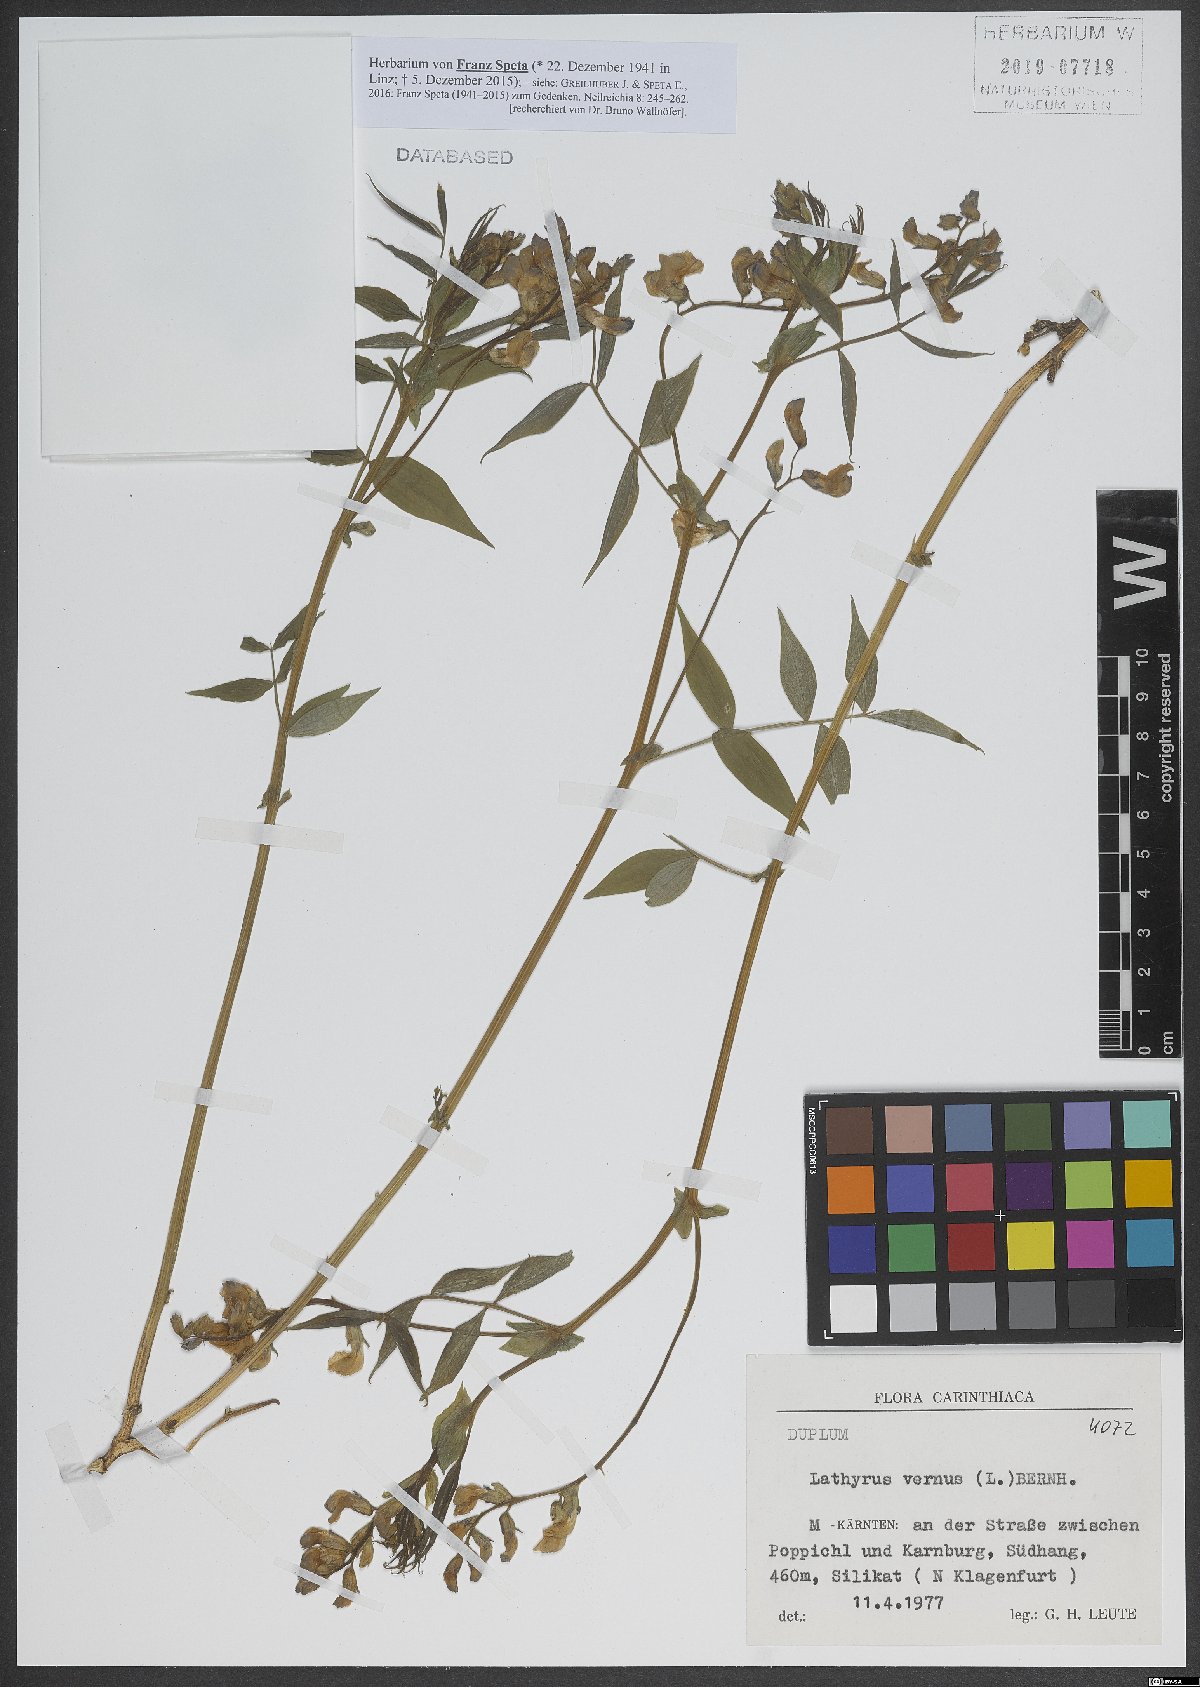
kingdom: Plantae
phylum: Tracheophyta
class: Magnoliopsida
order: Fabales
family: Fabaceae
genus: Lathyrus
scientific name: Lathyrus vernus
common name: Spring pea
